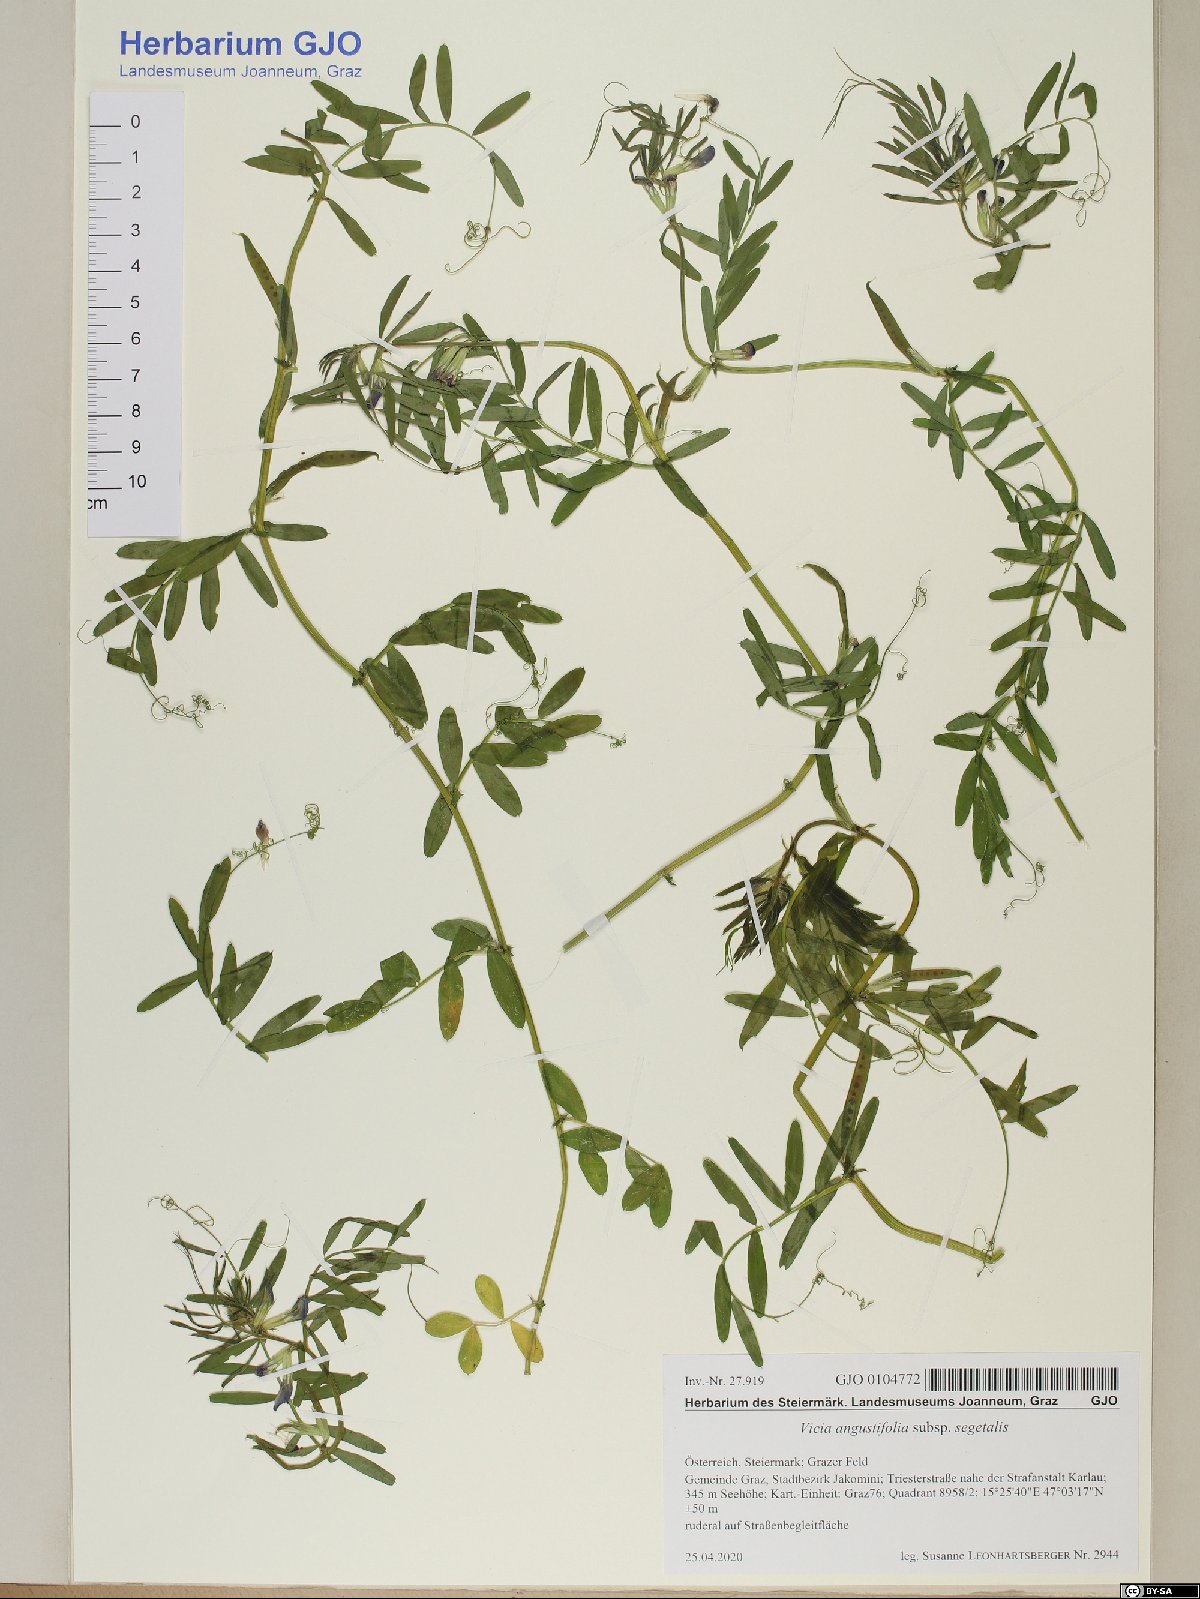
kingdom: Plantae
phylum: Tracheophyta
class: Magnoliopsida
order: Fabales
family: Fabaceae
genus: Vicia
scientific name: Vicia sativa
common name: Garden vetch
